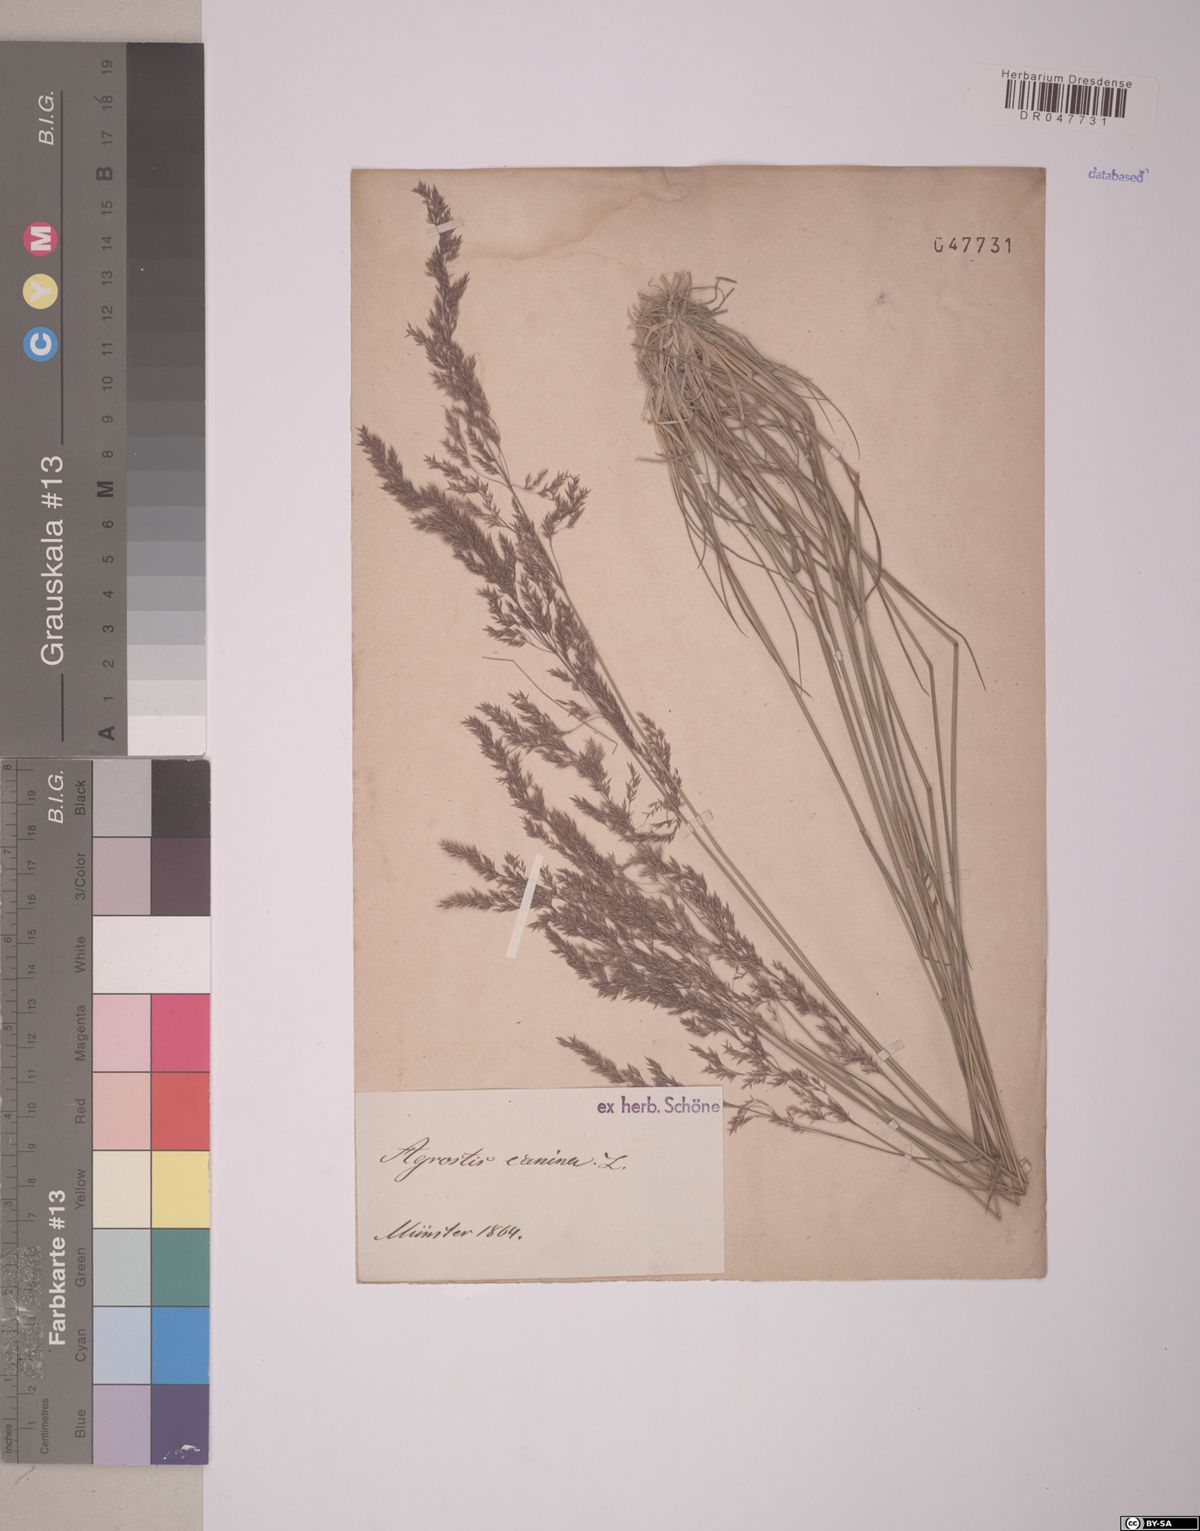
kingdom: Plantae
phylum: Tracheophyta
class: Liliopsida
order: Poales
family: Poaceae
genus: Agrostis
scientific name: Agrostis canina
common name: Velvet bent
